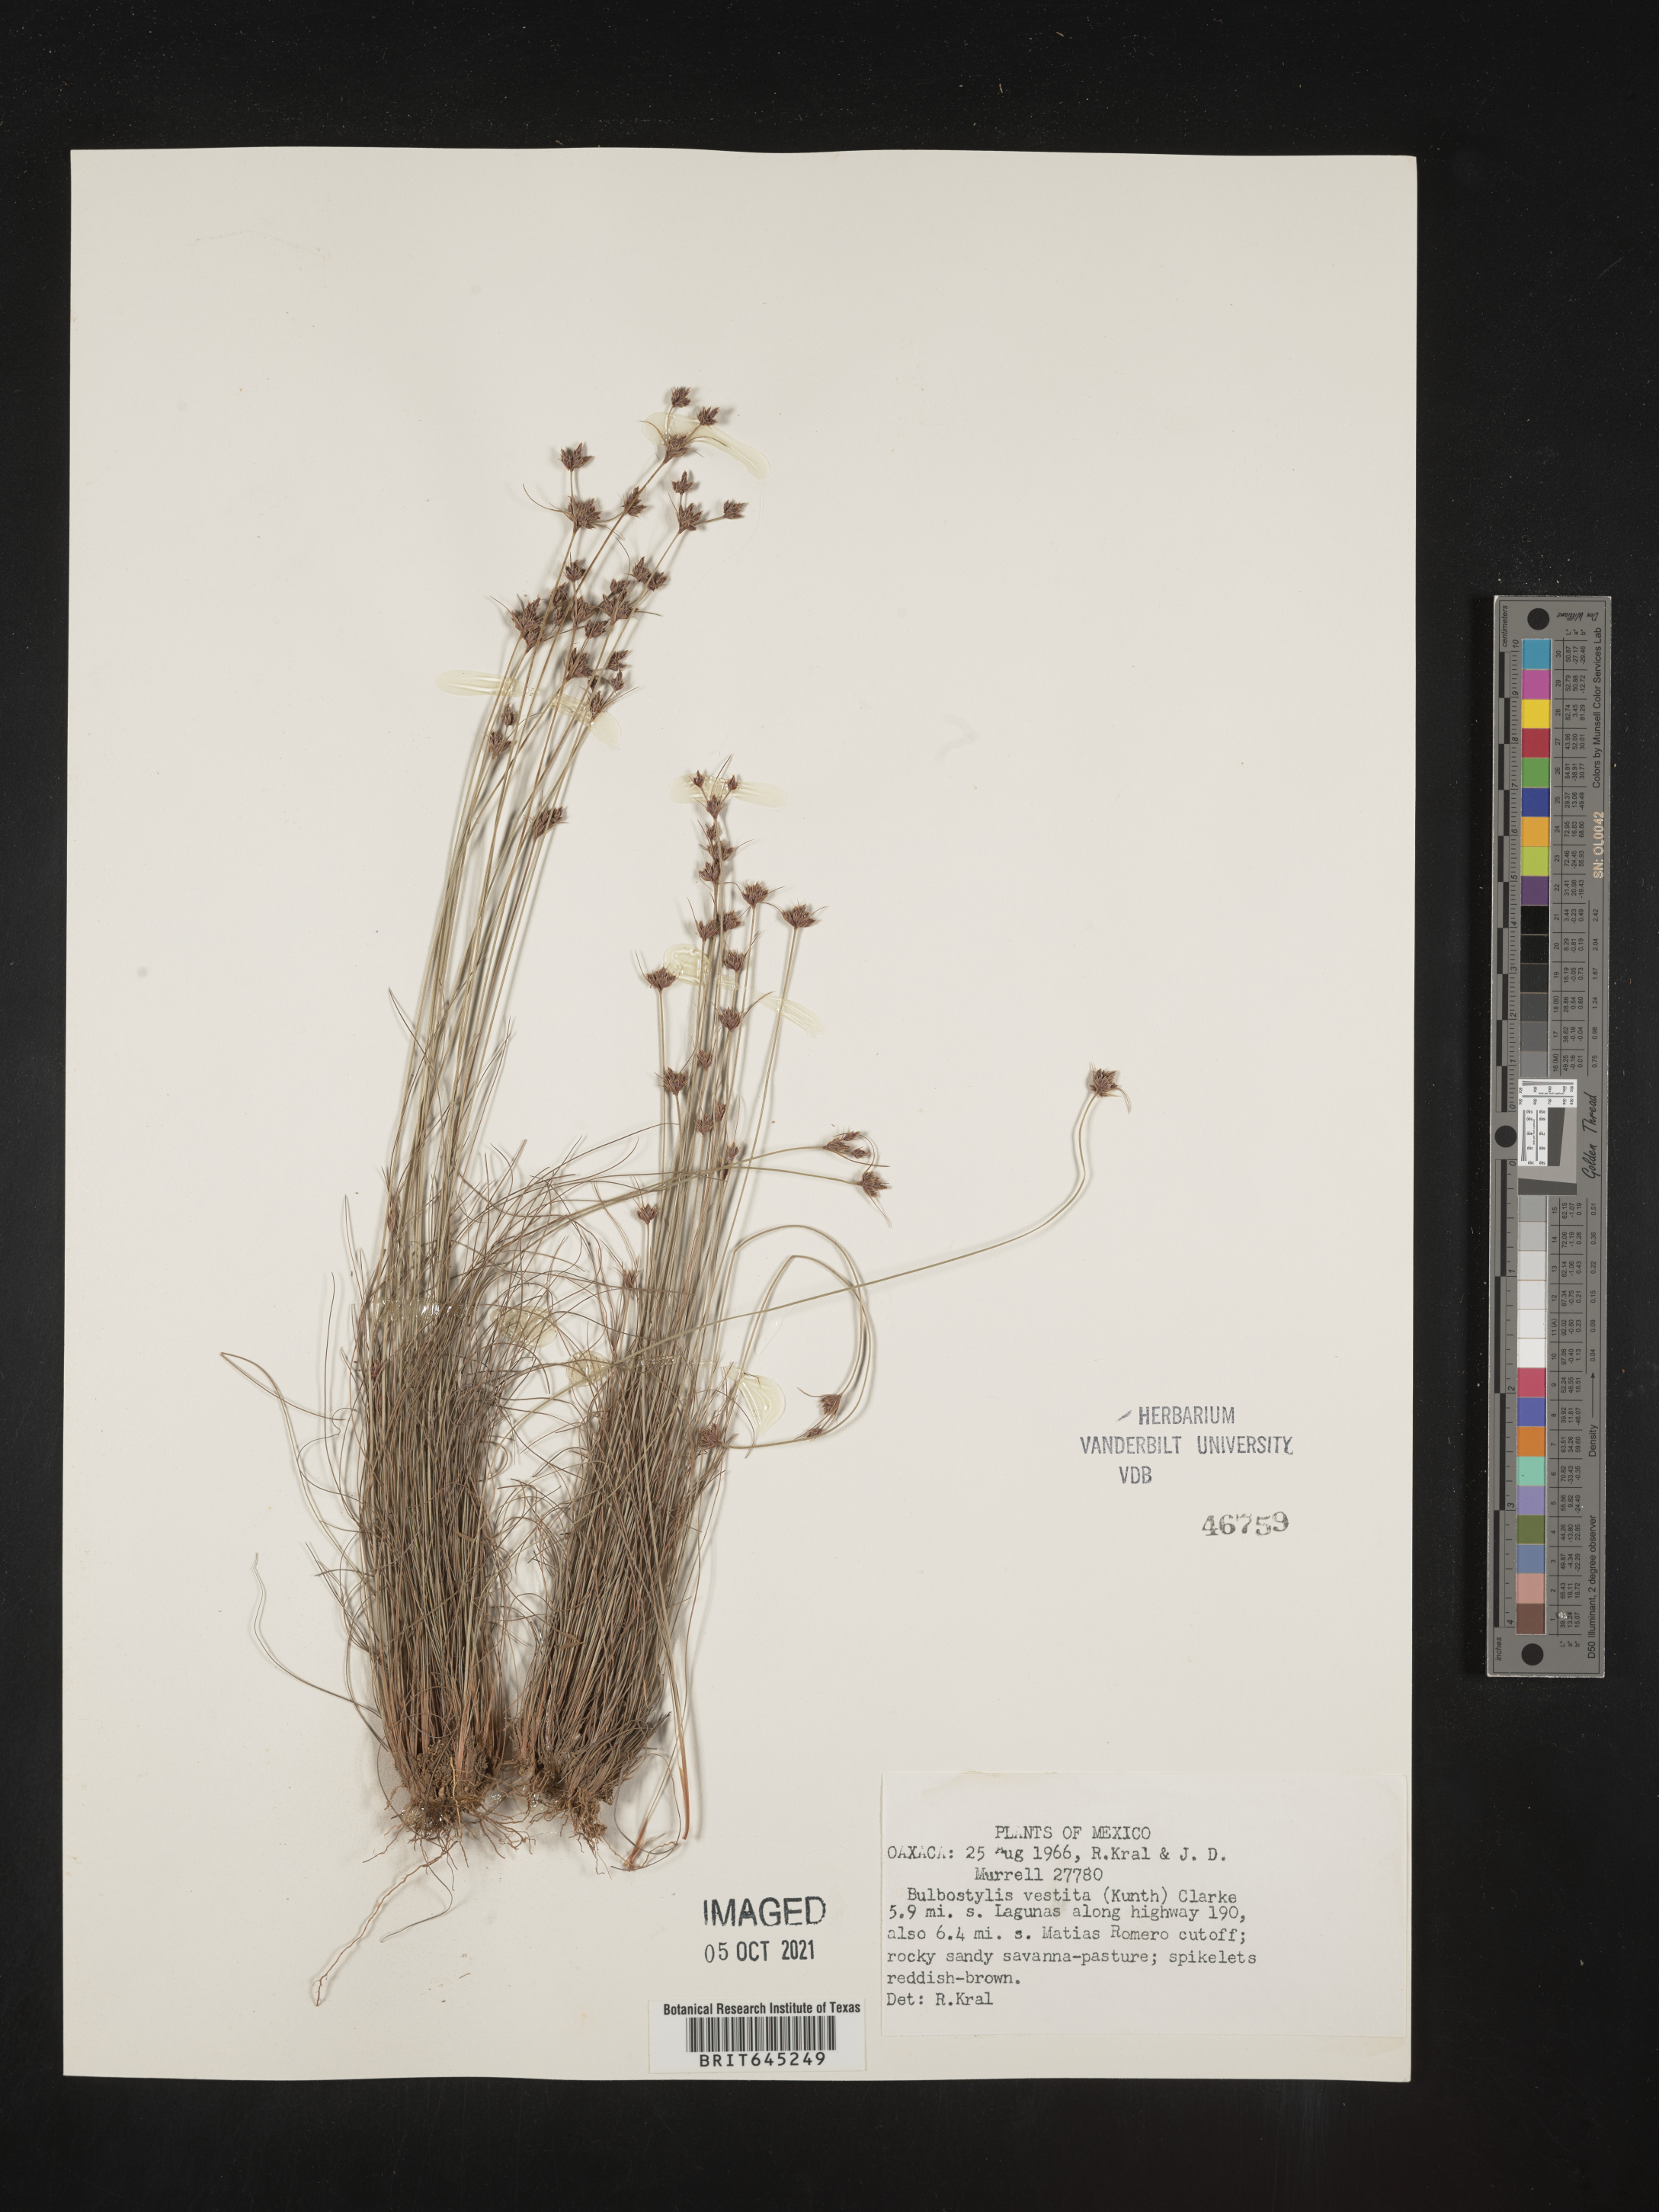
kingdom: Plantae
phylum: Tracheophyta
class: Liliopsida
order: Poales
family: Cyperaceae
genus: Bulbostylis
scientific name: Bulbostylis vestita
